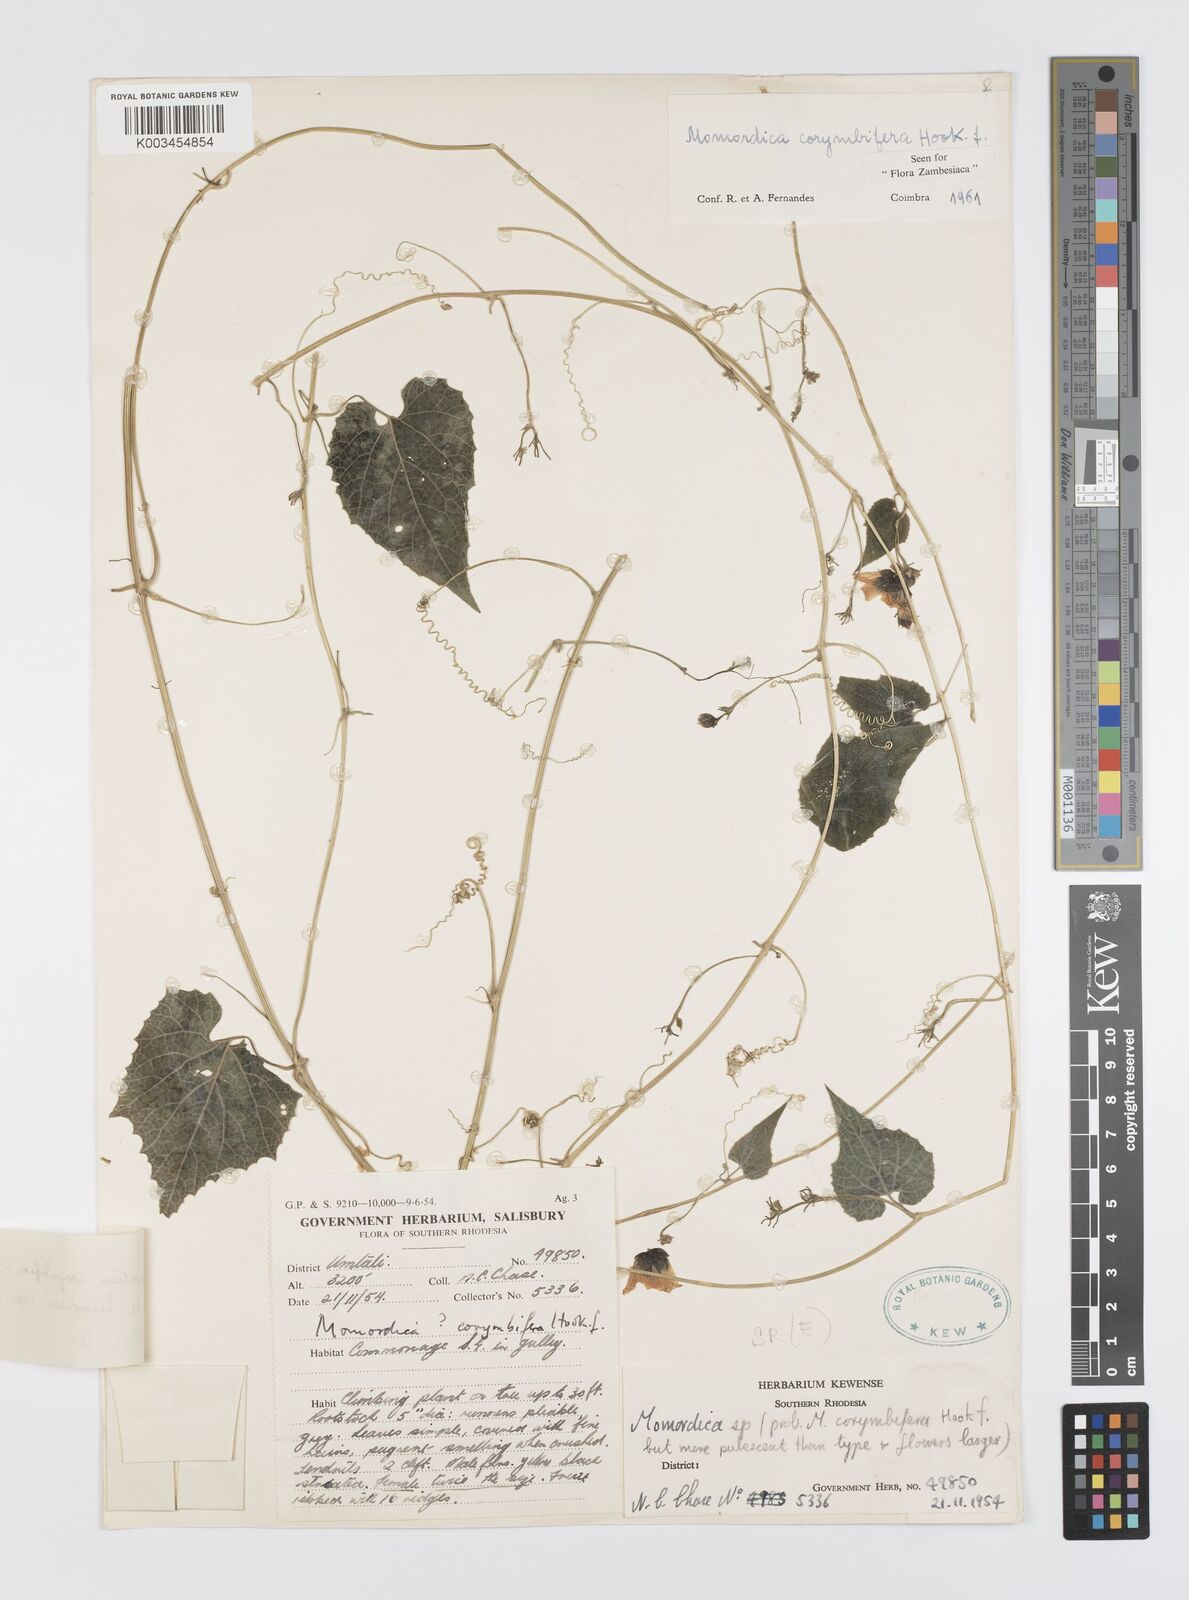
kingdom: Plantae
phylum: Tracheophyta
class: Magnoliopsida
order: Cucurbitales
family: Cucurbitaceae
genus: Momordica
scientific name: Momordica corymbifera
